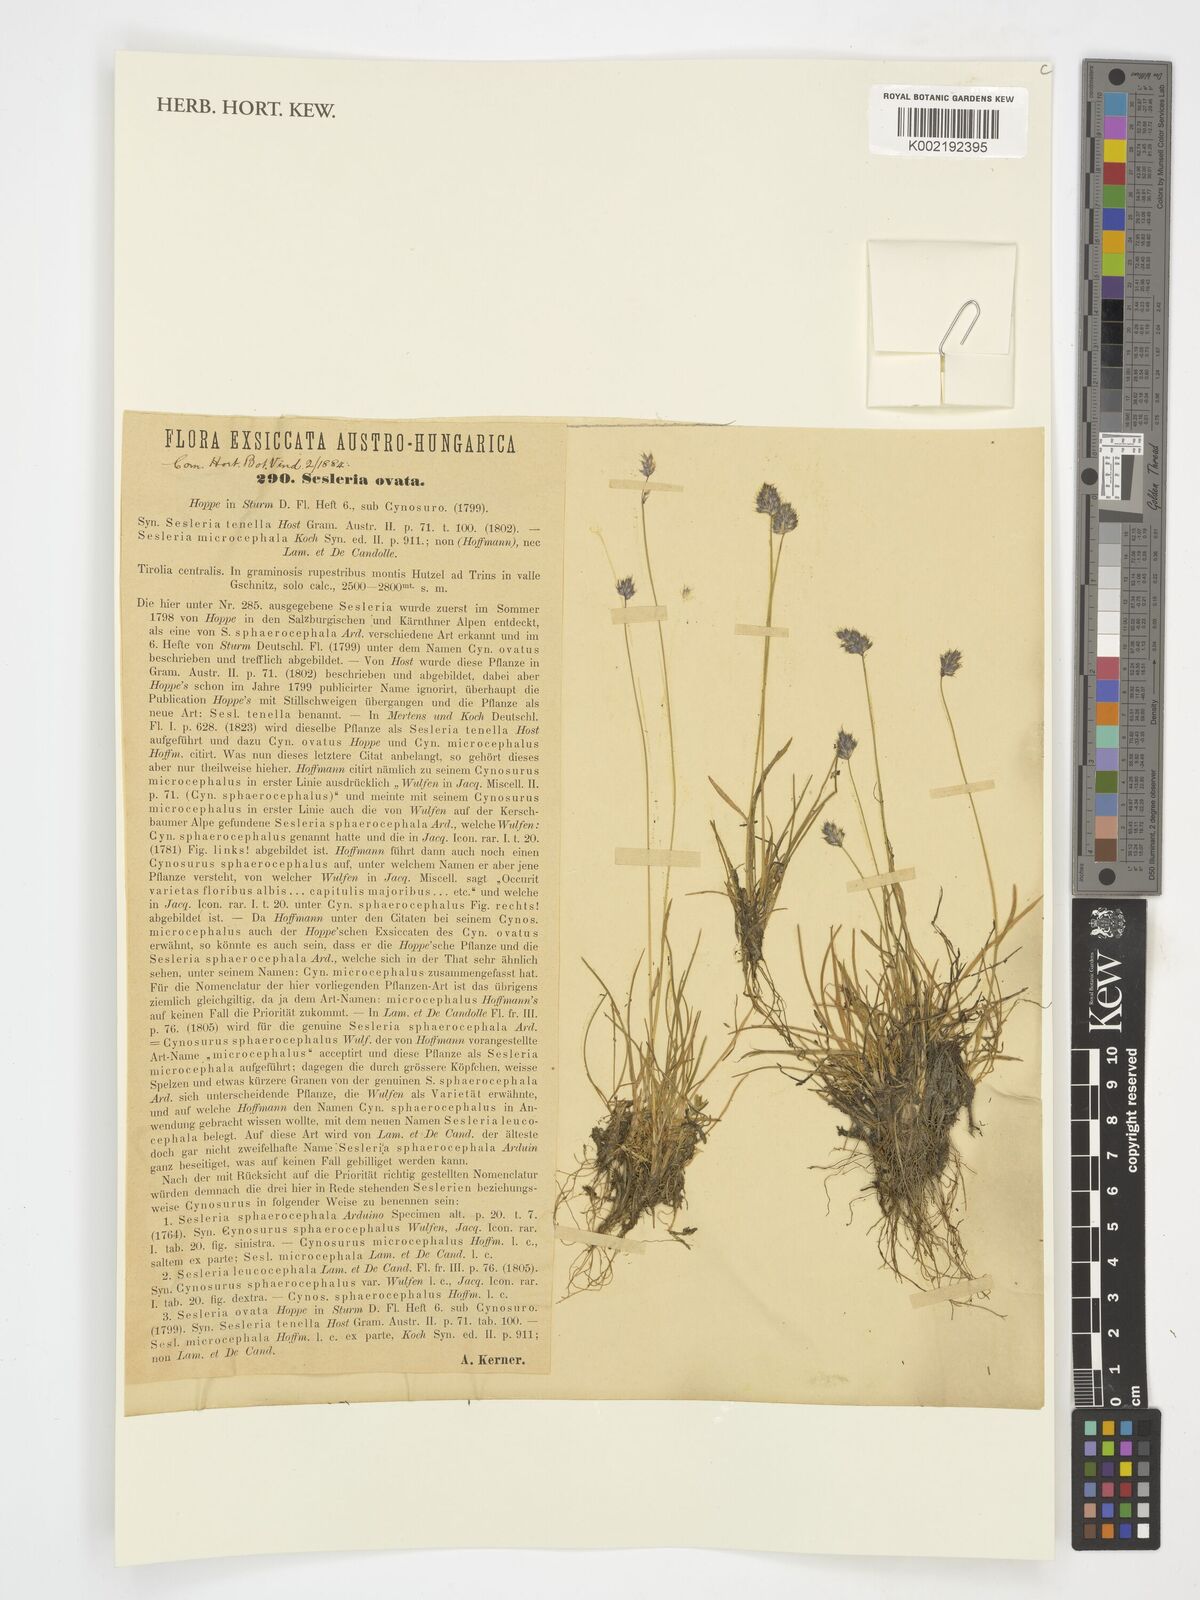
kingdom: Plantae
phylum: Tracheophyta
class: Liliopsida
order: Poales
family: Poaceae
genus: Psilathera
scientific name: Psilathera ovata
